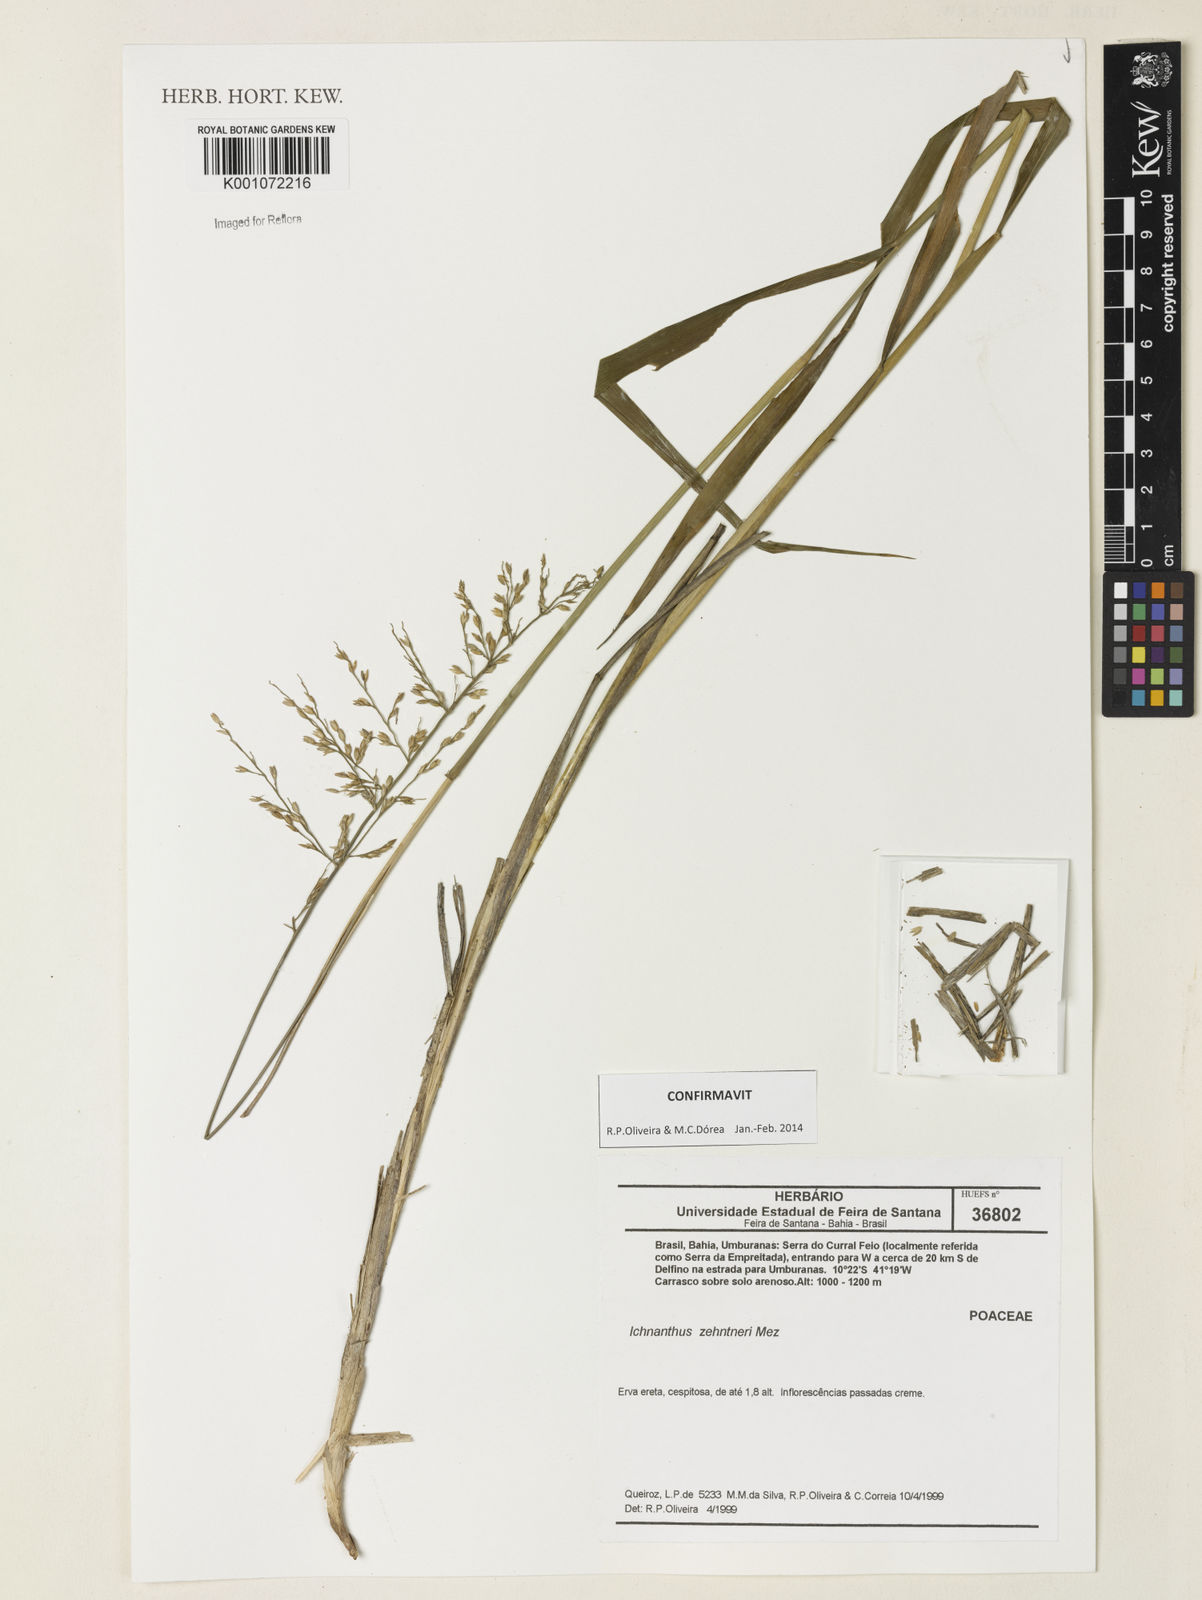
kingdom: Plantae
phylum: Tracheophyta
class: Liliopsida
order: Poales
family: Poaceae
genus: Ichnanthus
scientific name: Ichnanthus zehntneri
